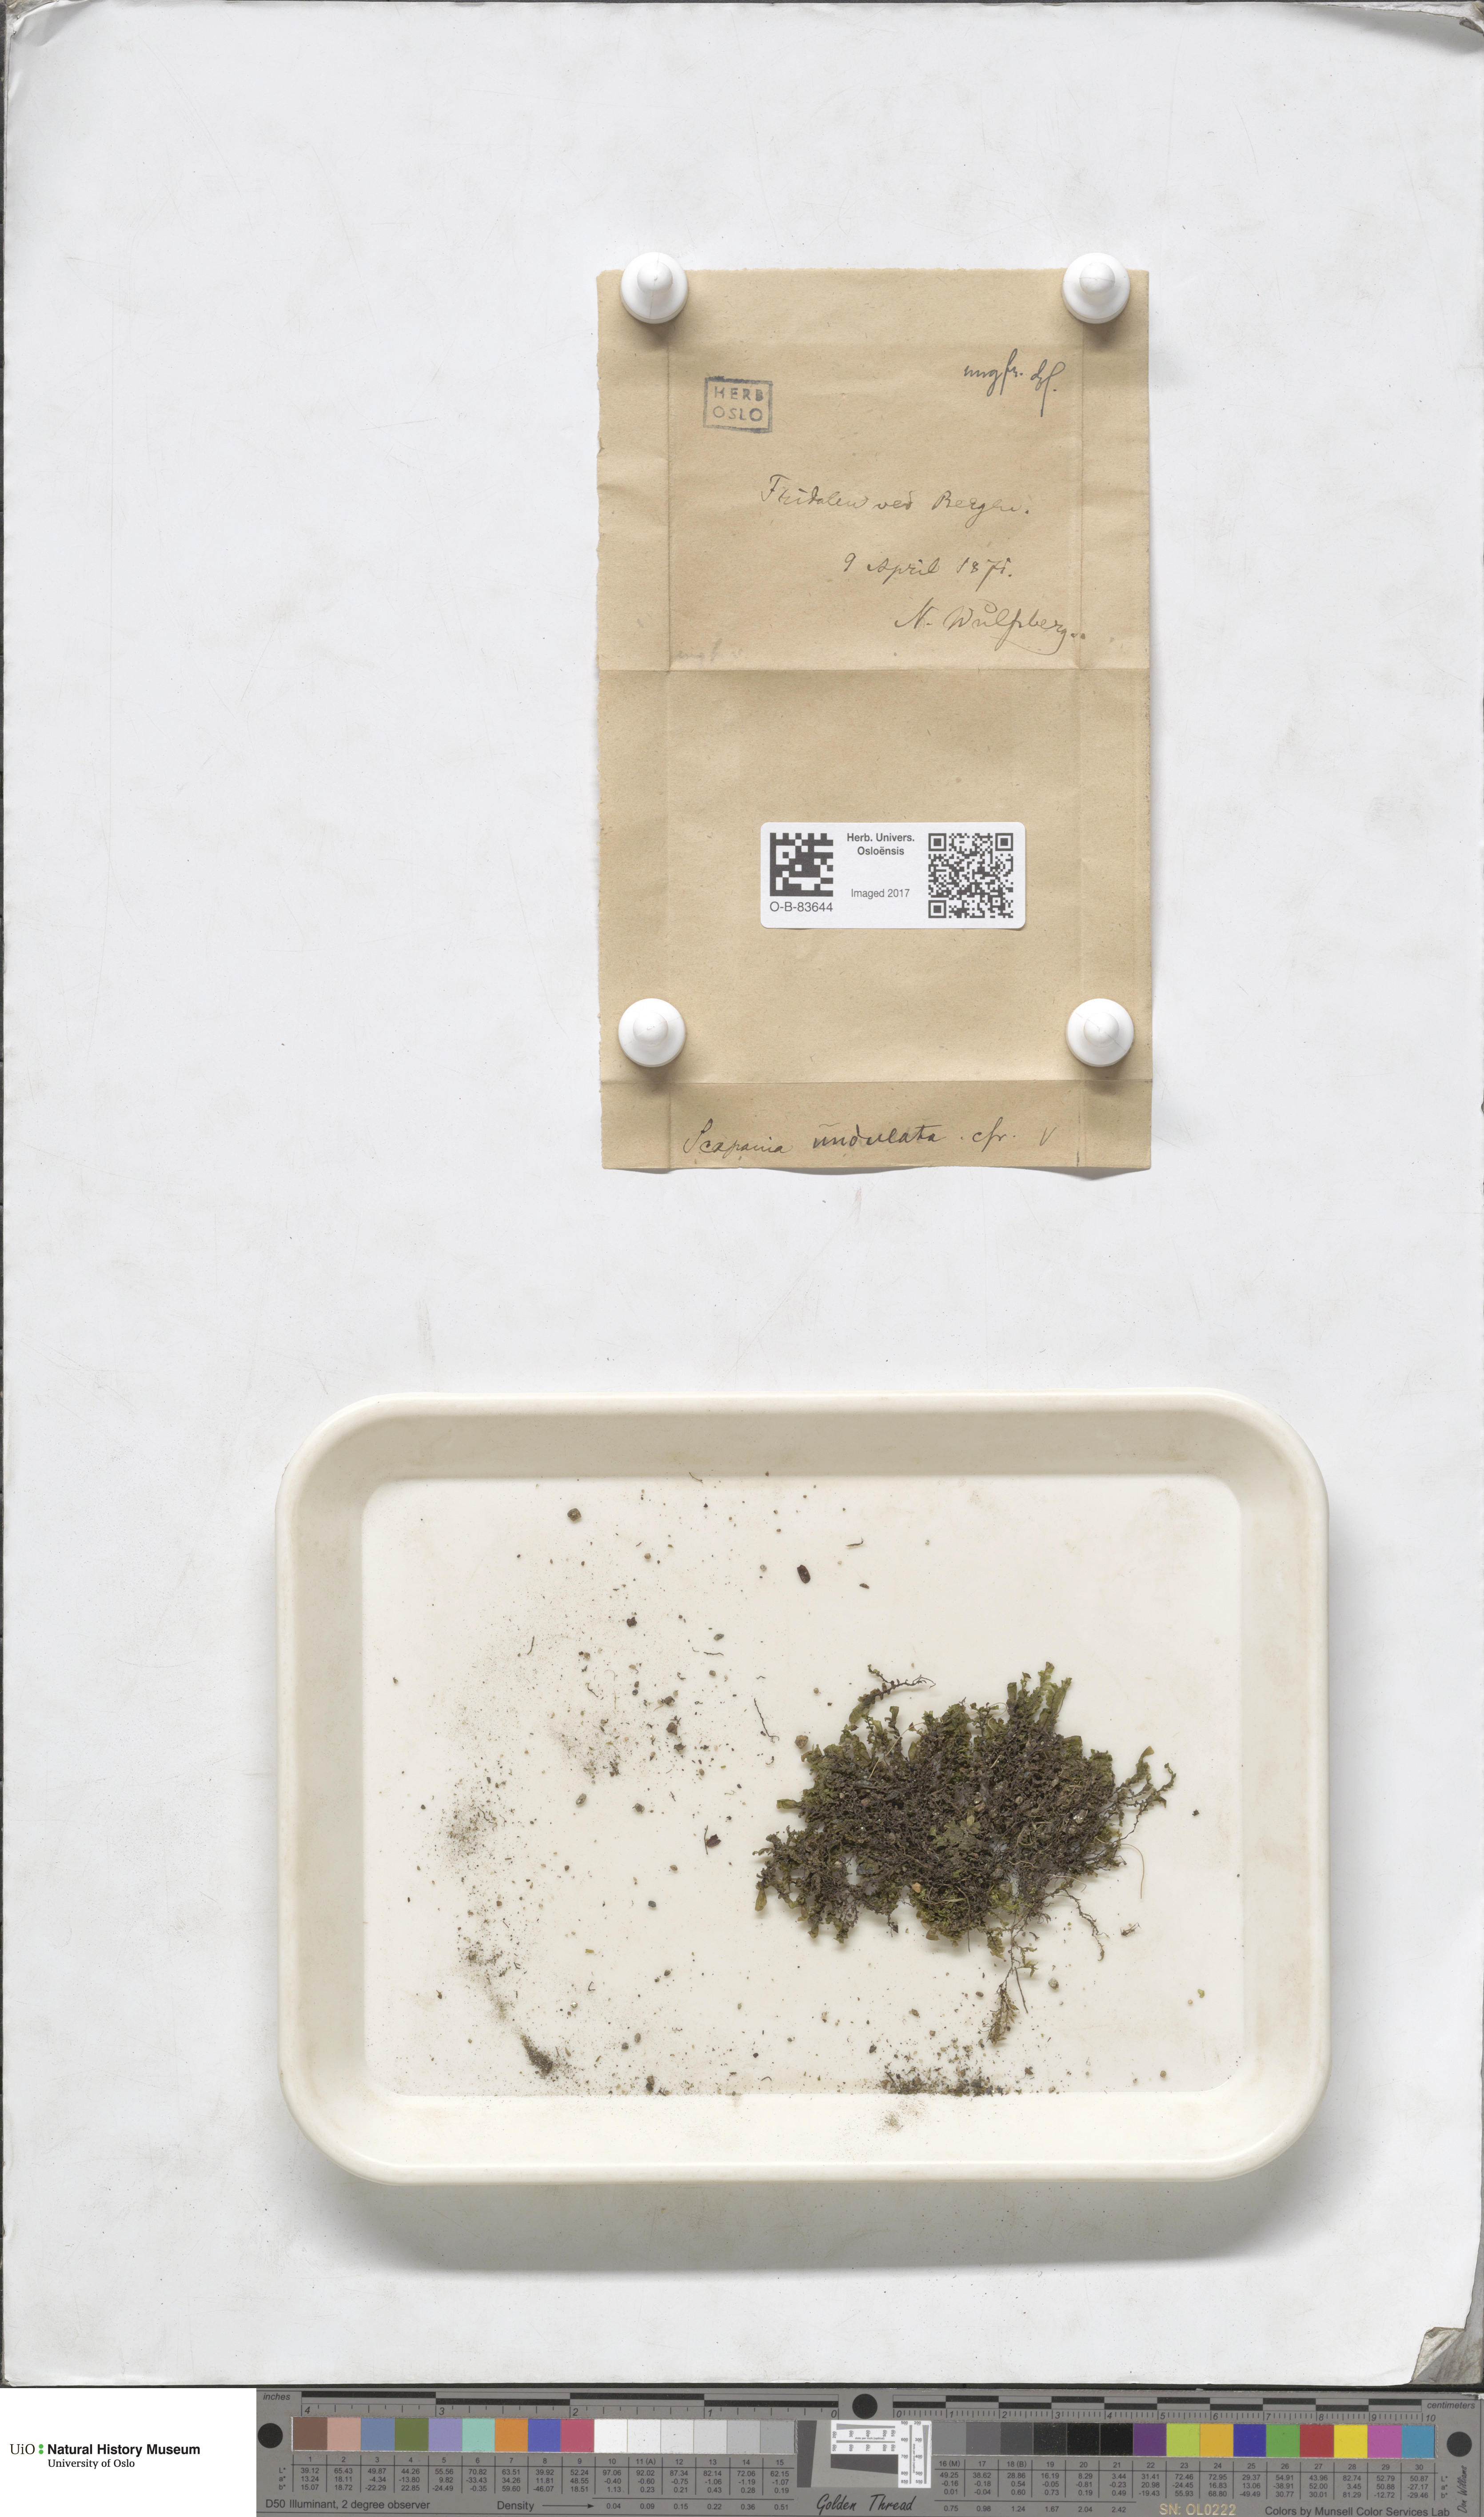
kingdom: Plantae
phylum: Marchantiophyta
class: Jungermanniopsida
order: Jungermanniales
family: Scapaniaceae
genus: Scapania
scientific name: Scapania undulata
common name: Water earwort
